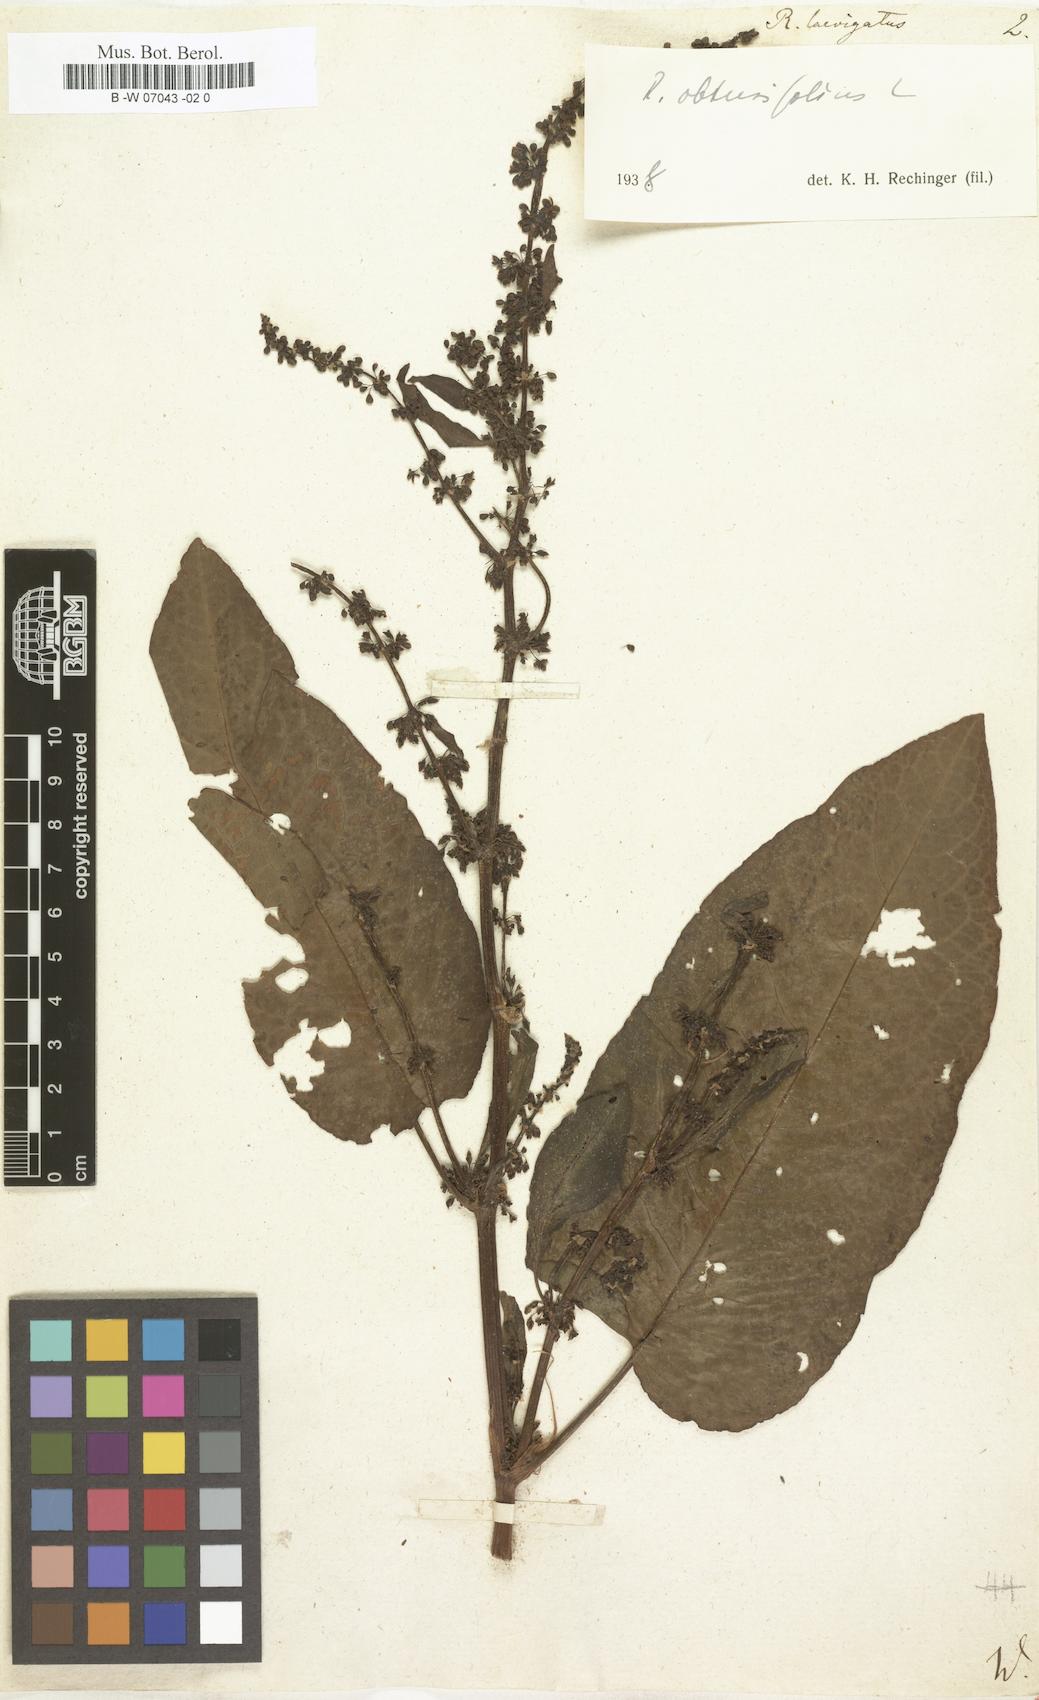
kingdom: Plantae
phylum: Tracheophyta
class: Magnoliopsida
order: Caryophyllales
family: Polygonaceae
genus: Rumex
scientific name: Rumex obtusifolius
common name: Bitter dock
